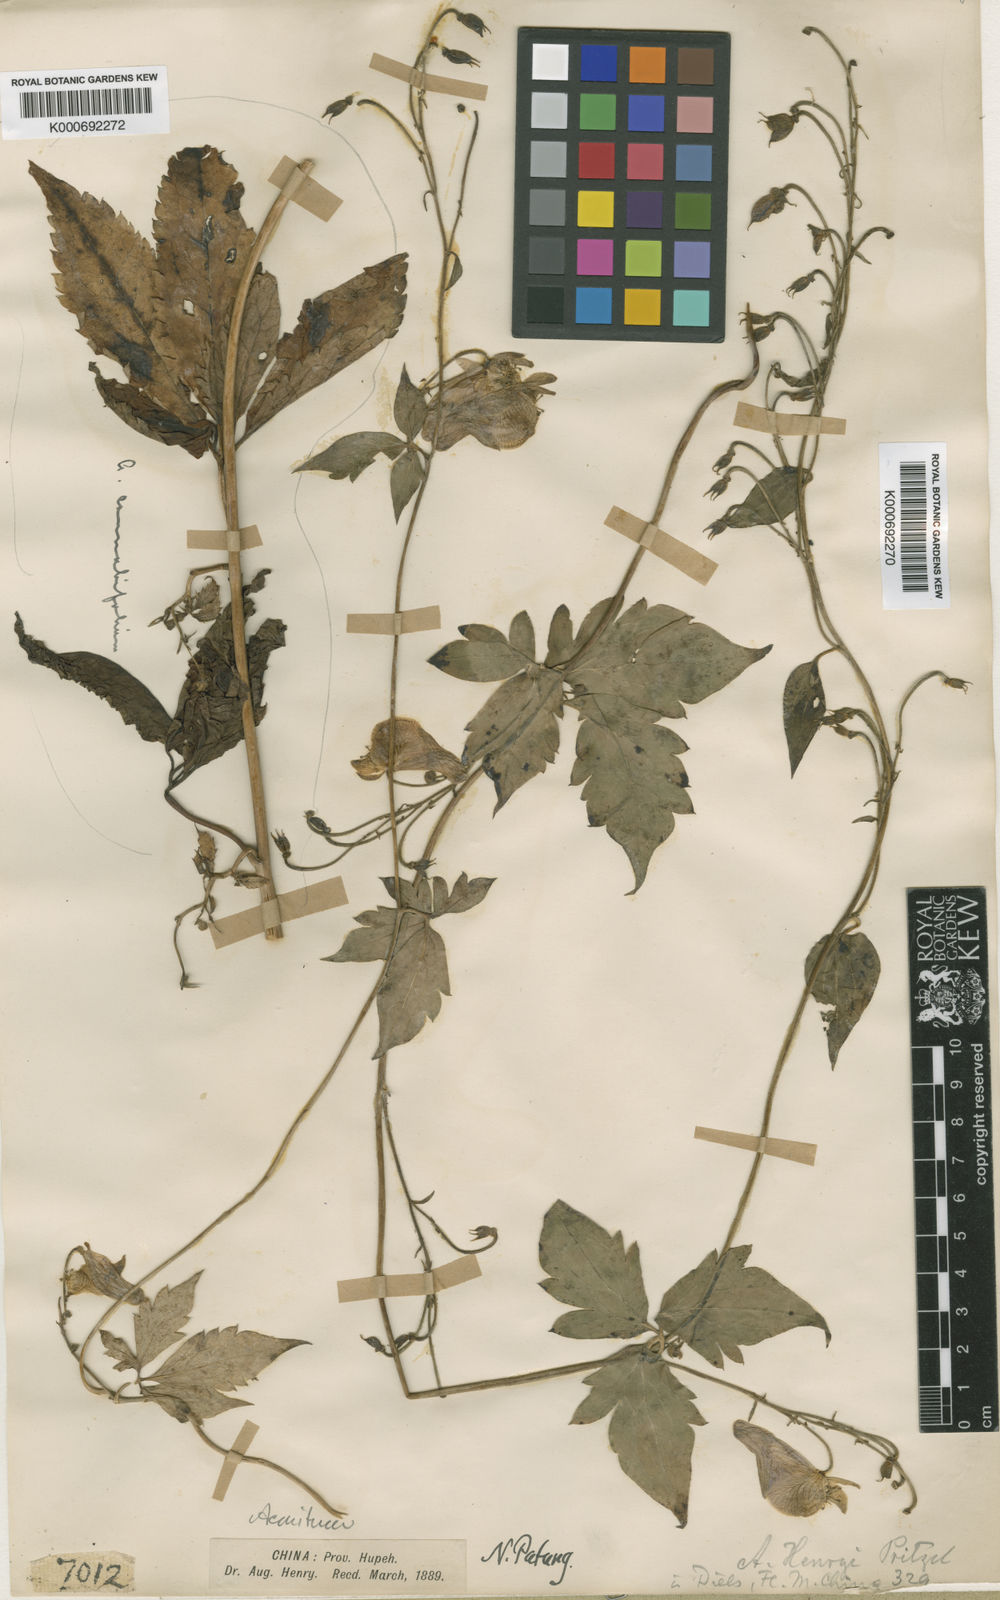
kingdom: Plantae
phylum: Tracheophyta
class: Magnoliopsida
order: Ranunculales
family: Ranunculaceae
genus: Aconitum
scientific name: Aconitum
